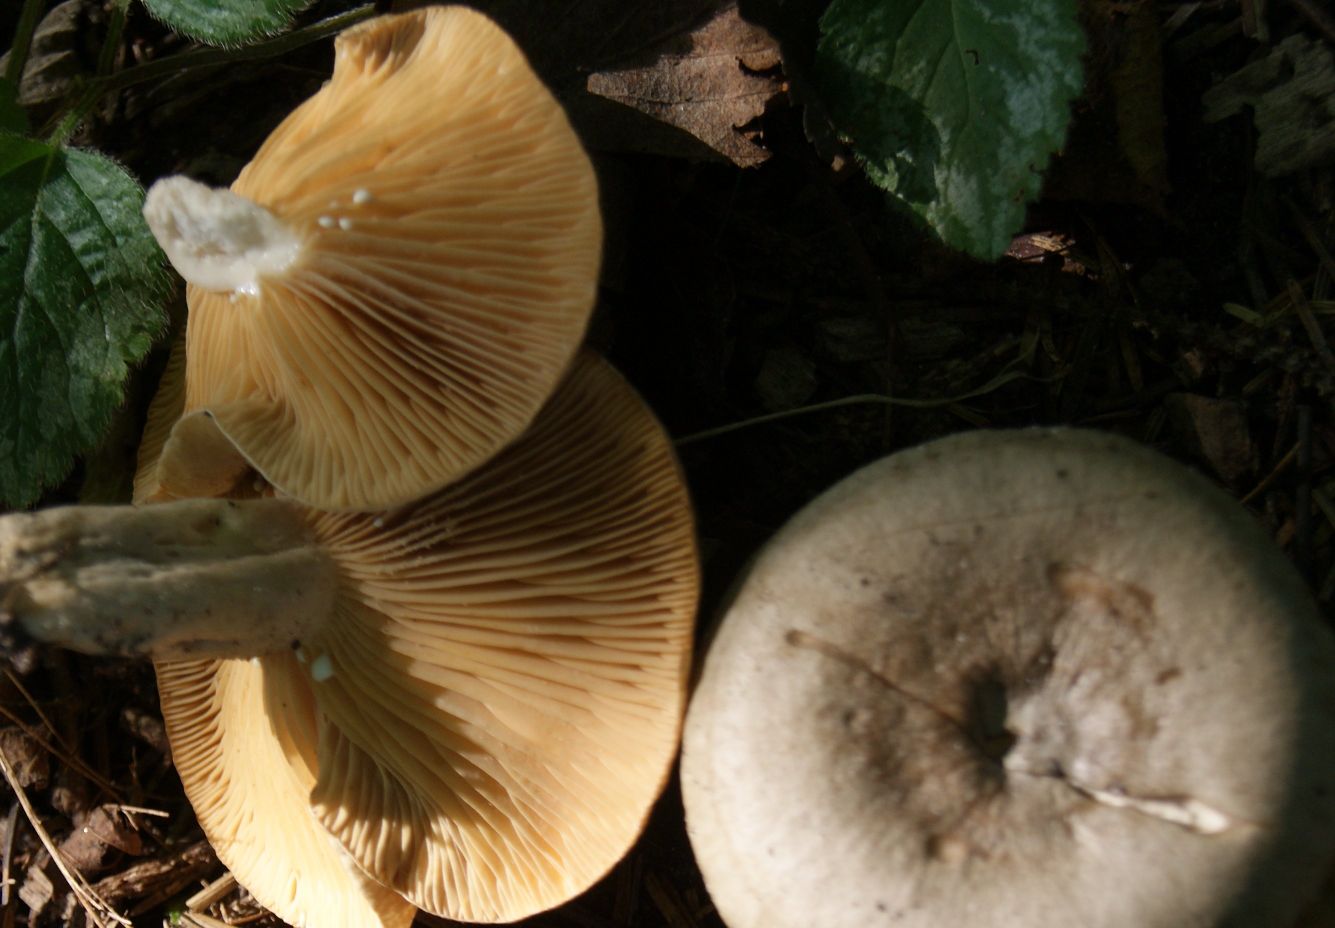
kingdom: Fungi
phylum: Basidiomycota
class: Agaricomycetes
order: Russulales
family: Russulaceae
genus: Lactarius
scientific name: Lactarius pyrogalus
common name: hassel-mælkehat
